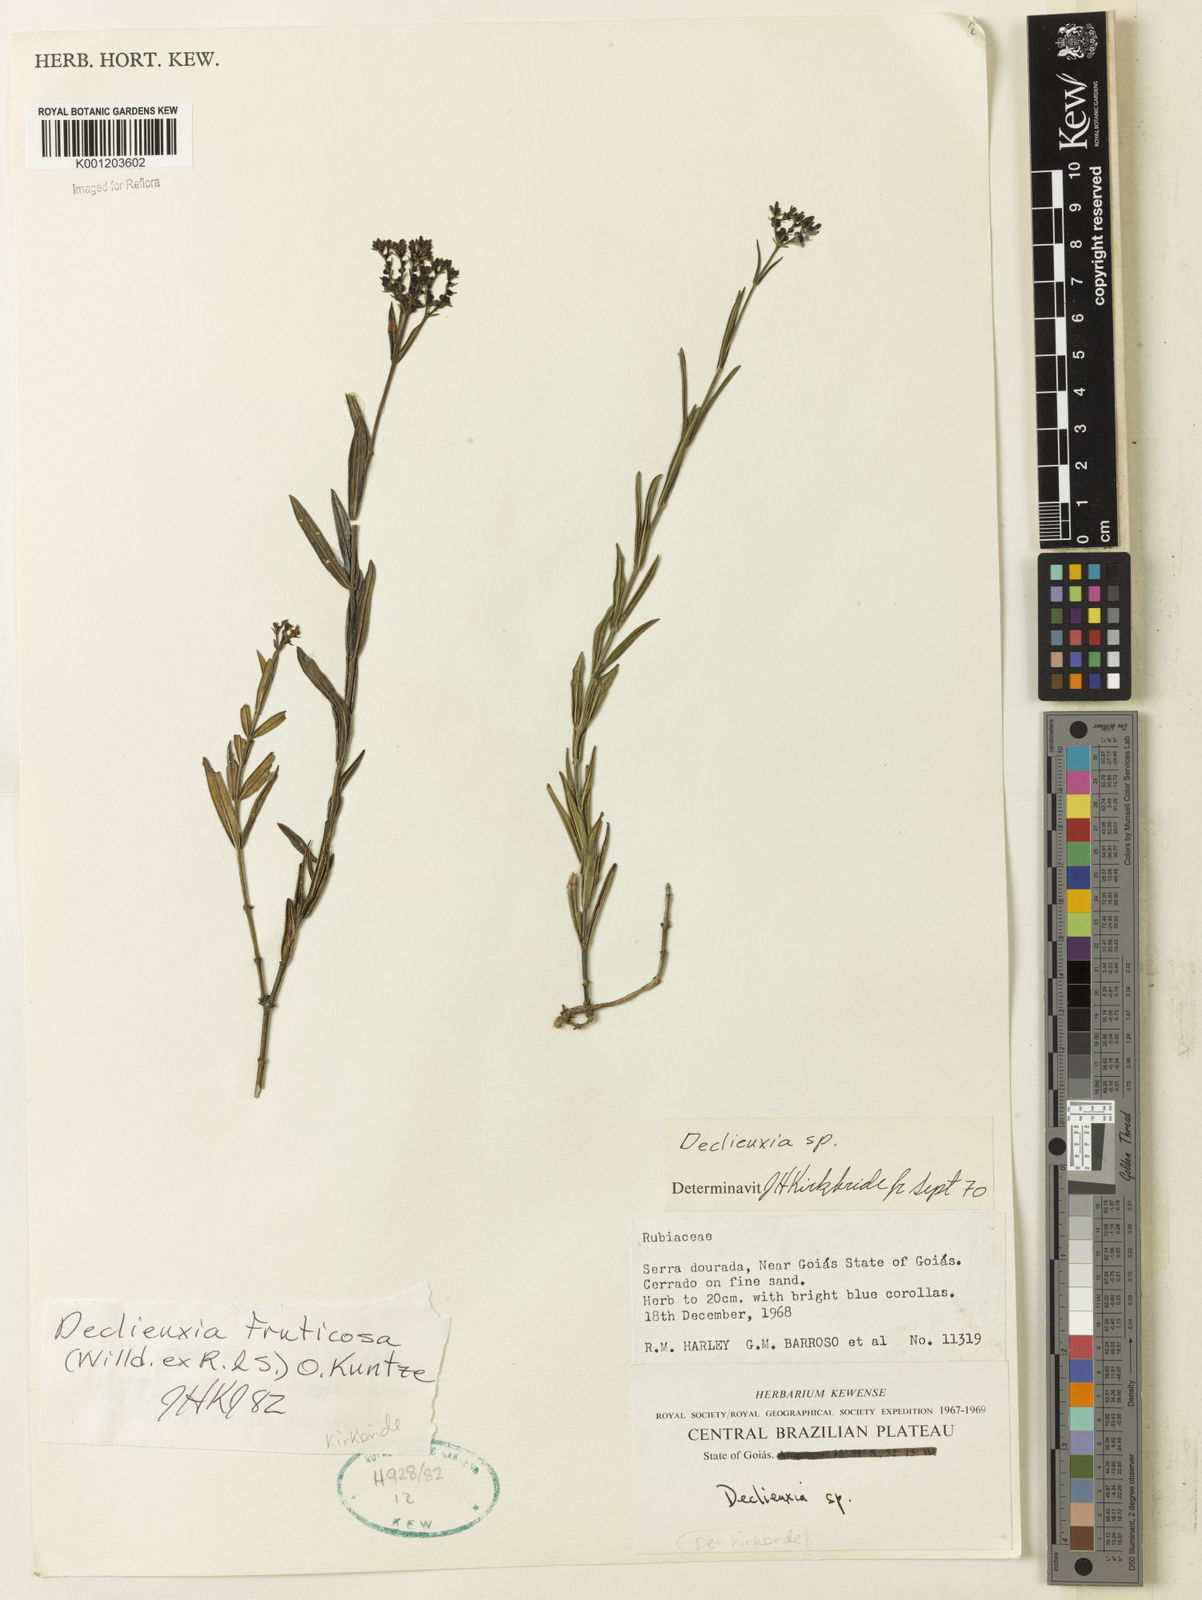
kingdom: Plantae
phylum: Tracheophyta
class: Magnoliopsida
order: Gentianales
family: Rubiaceae
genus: Declieuxia
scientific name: Declieuxia fruticosa
